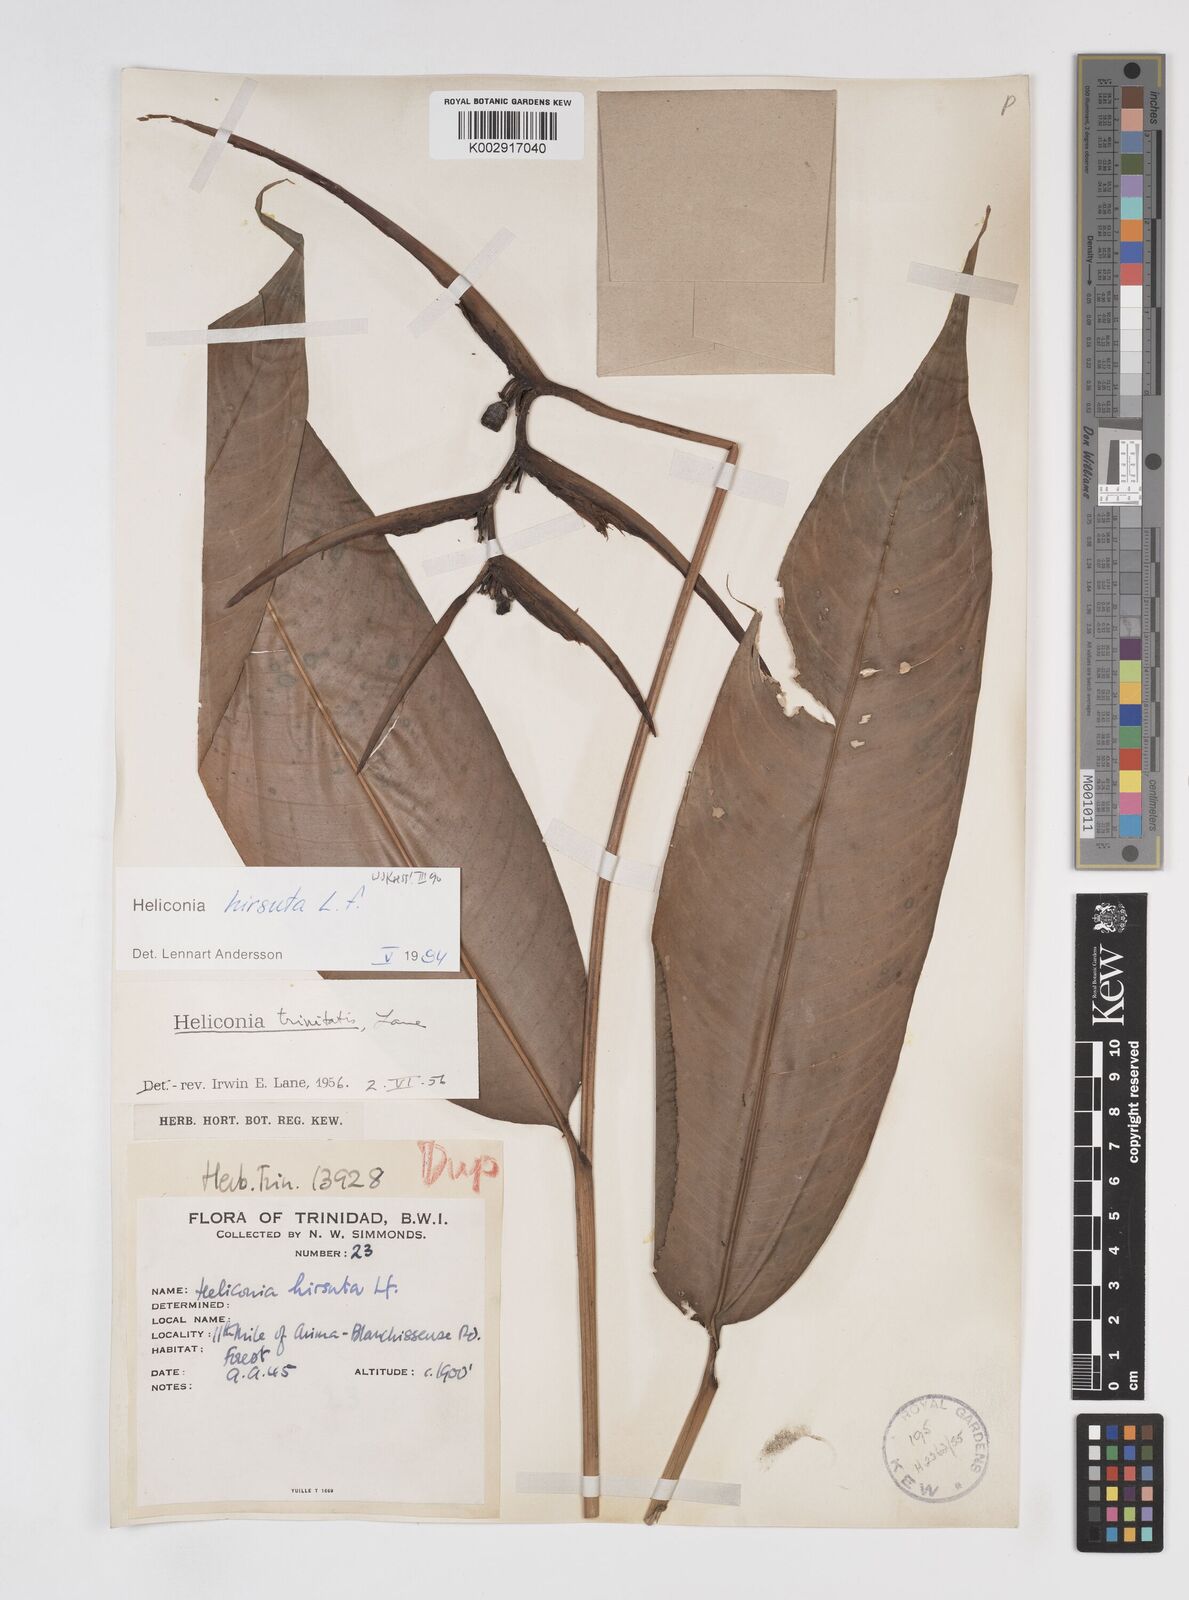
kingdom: Plantae
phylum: Tracheophyta
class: Liliopsida
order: Zingiberales
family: Heliconiaceae
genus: Heliconia
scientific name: Heliconia hirsuta
